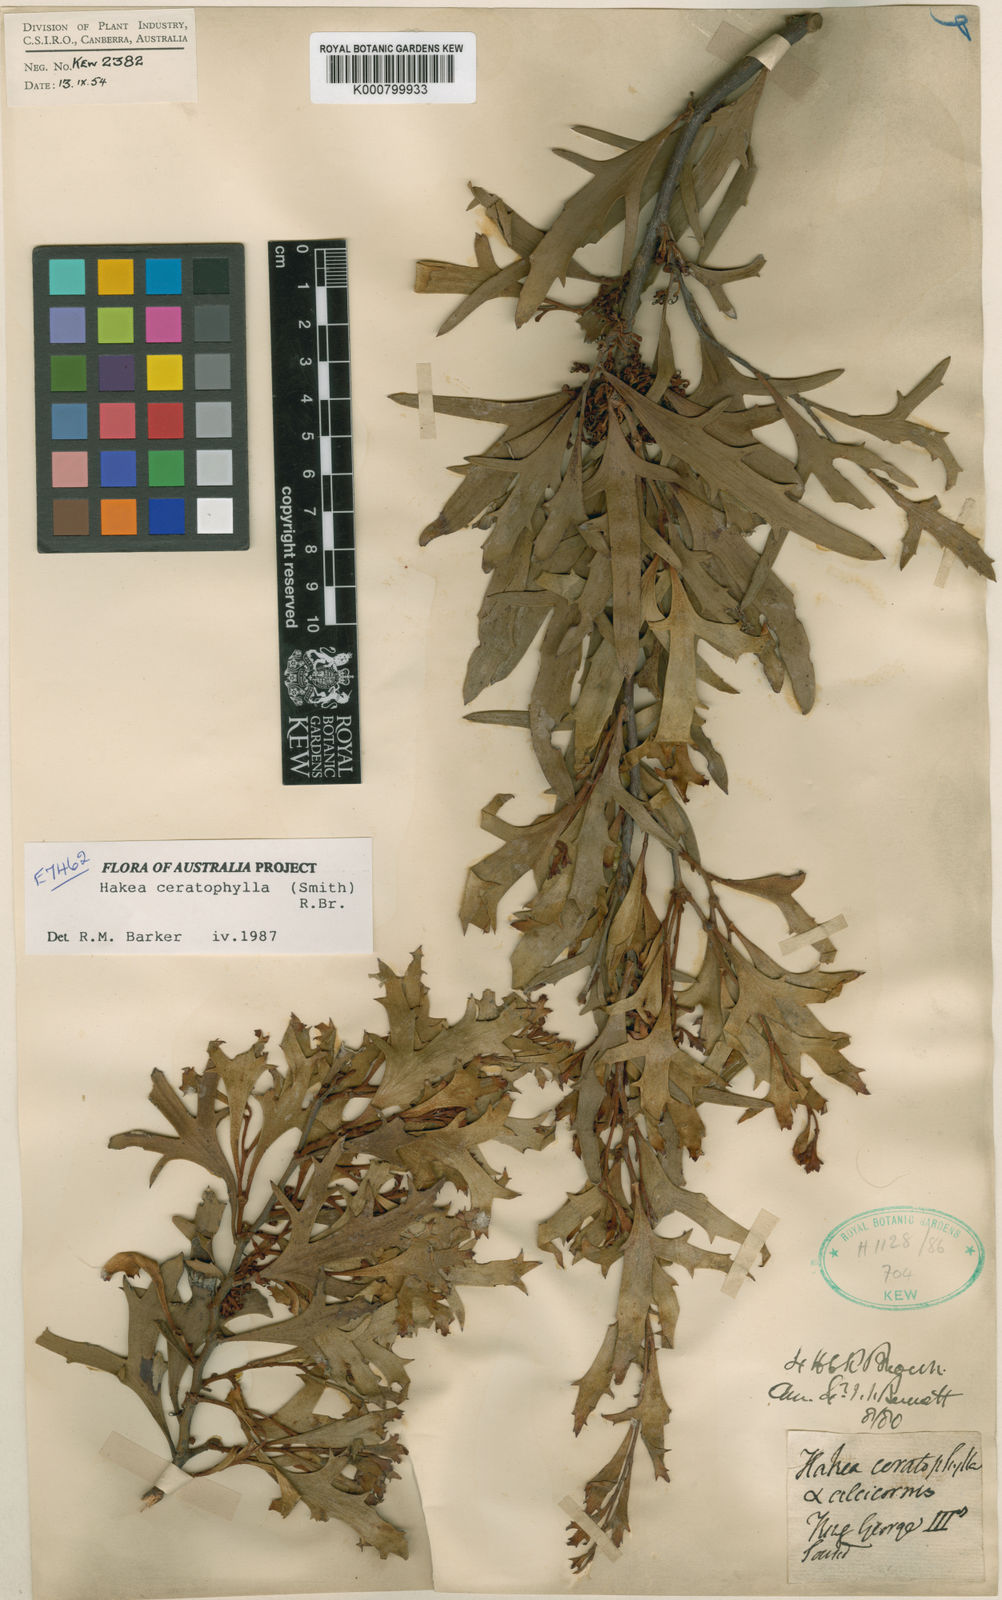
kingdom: Plantae
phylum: Tracheophyta
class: Magnoliopsida
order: Proteales
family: Proteaceae
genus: Hakea
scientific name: Hakea ceratophylla
